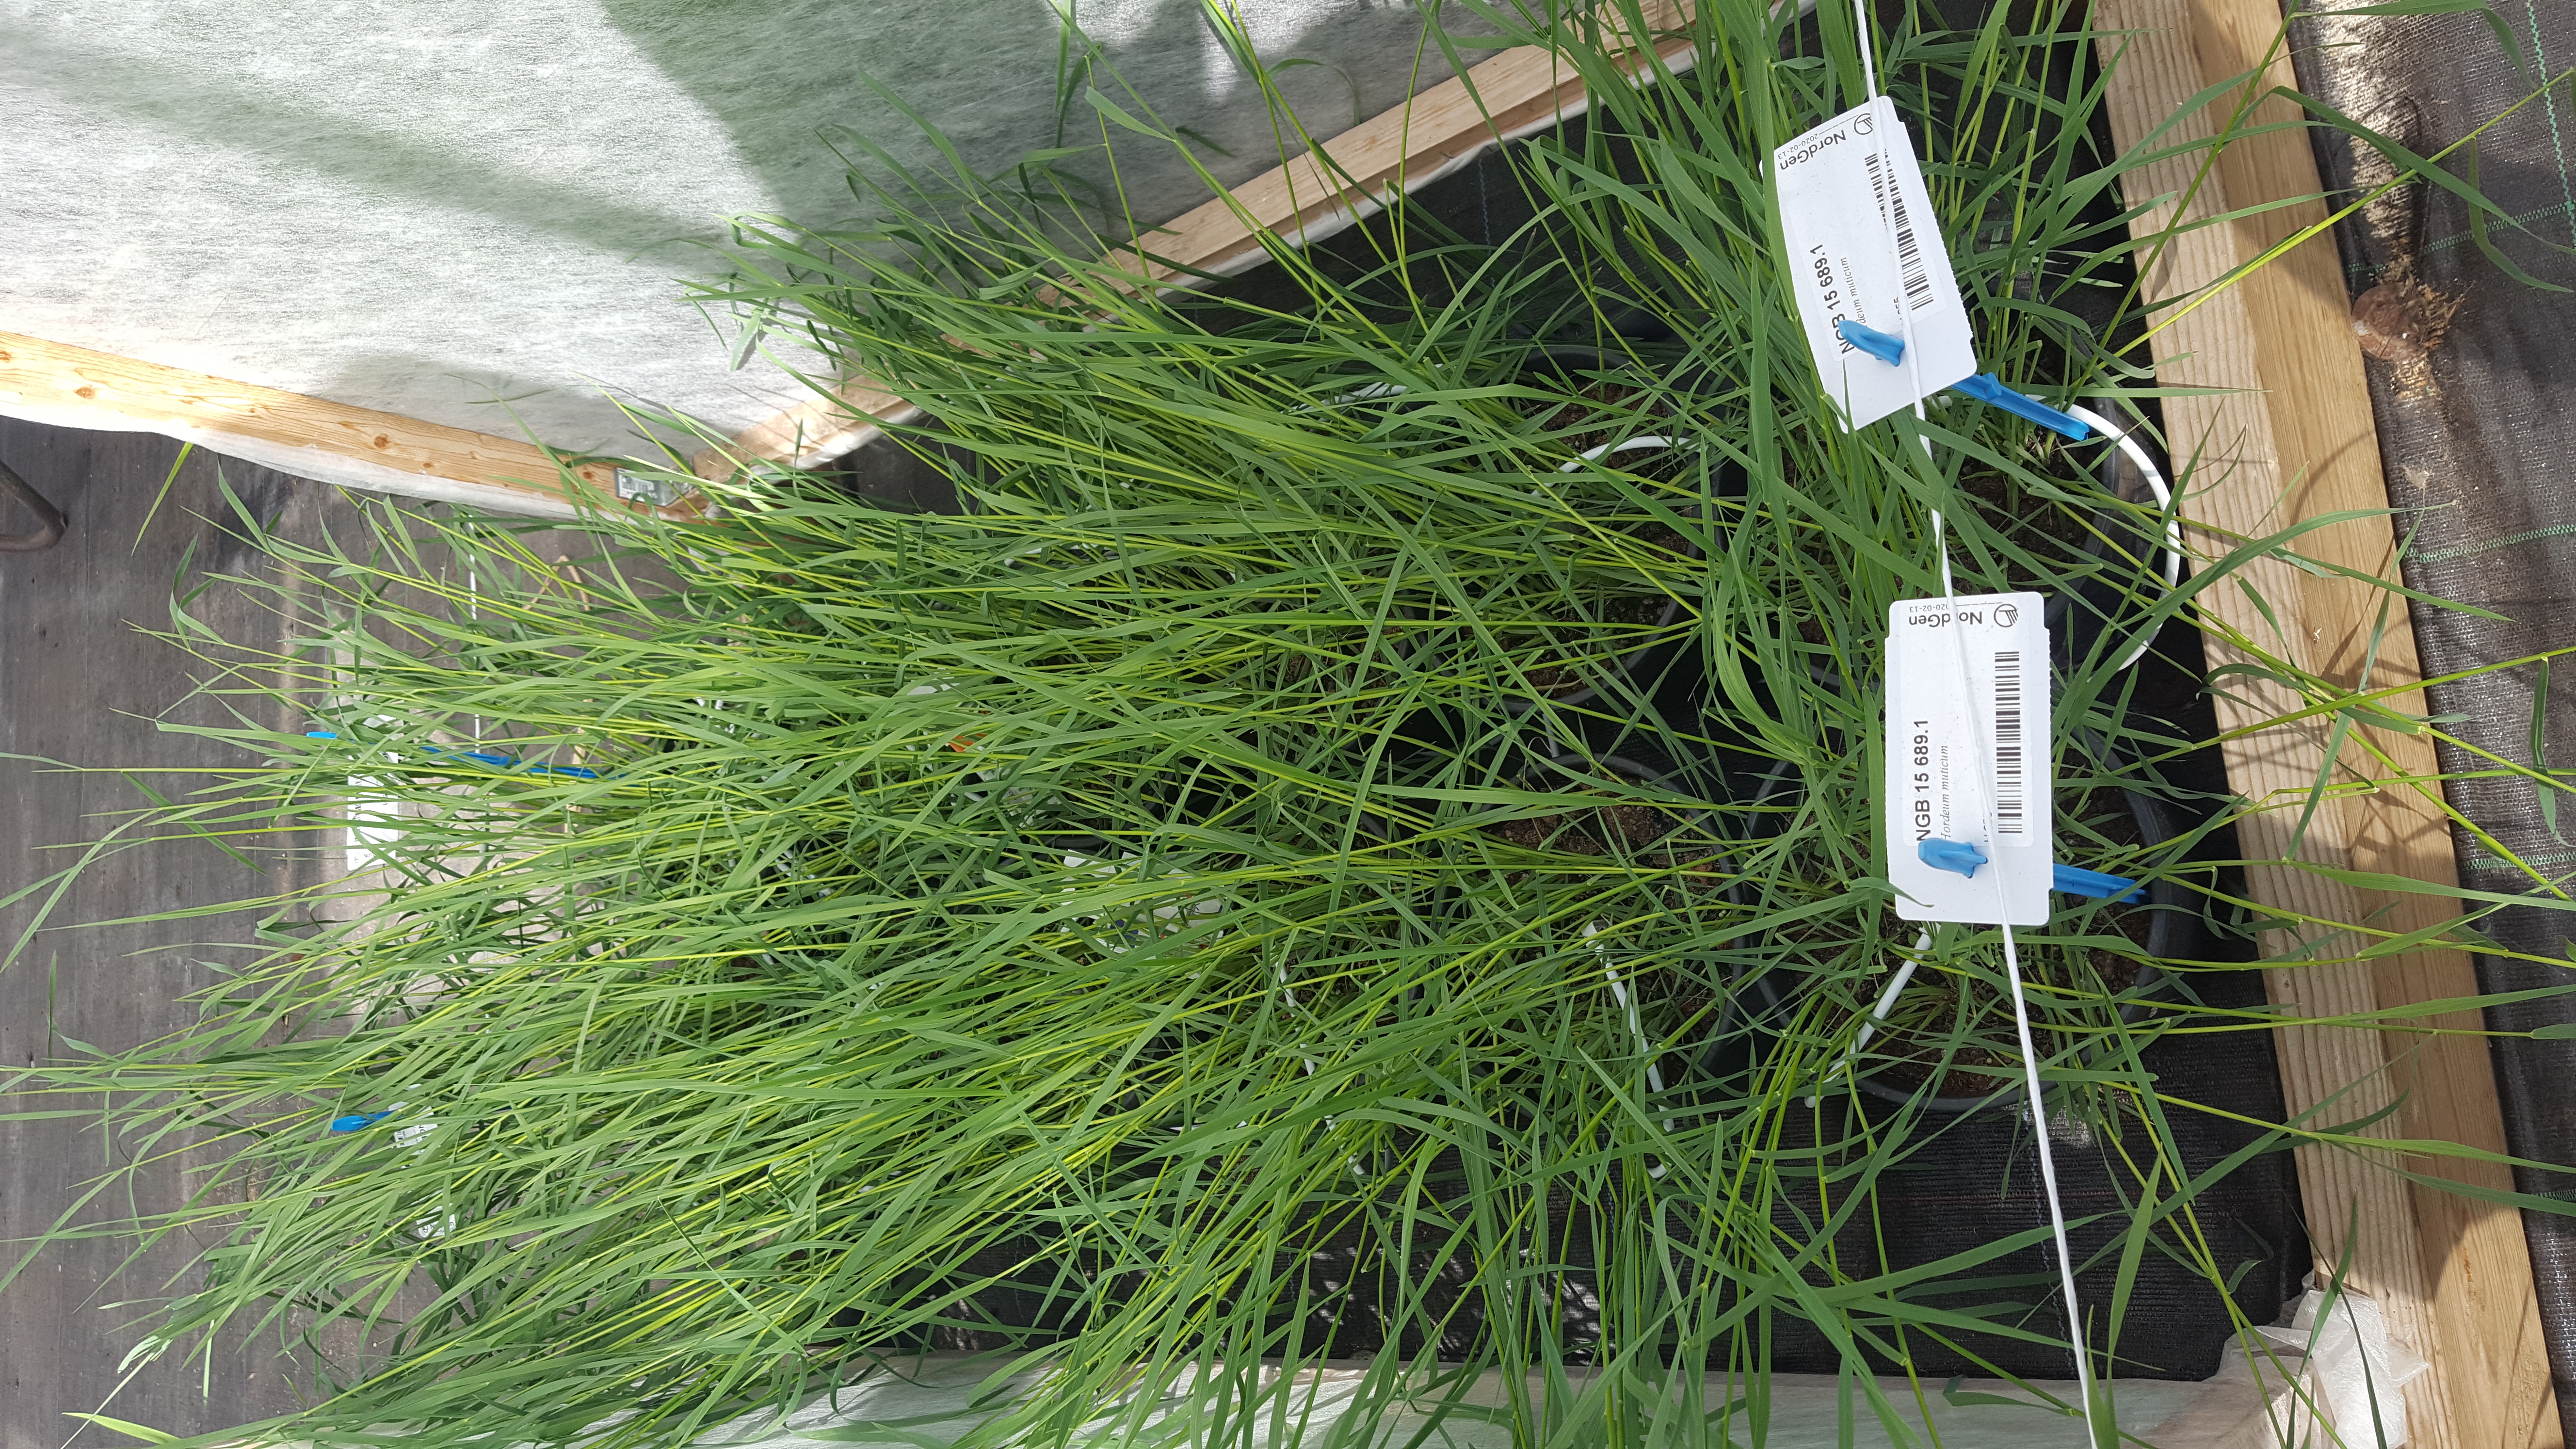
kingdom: Plantae
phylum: Tracheophyta
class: Liliopsida
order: Poales
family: Poaceae
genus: Hordeum
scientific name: Hordeum muticum
